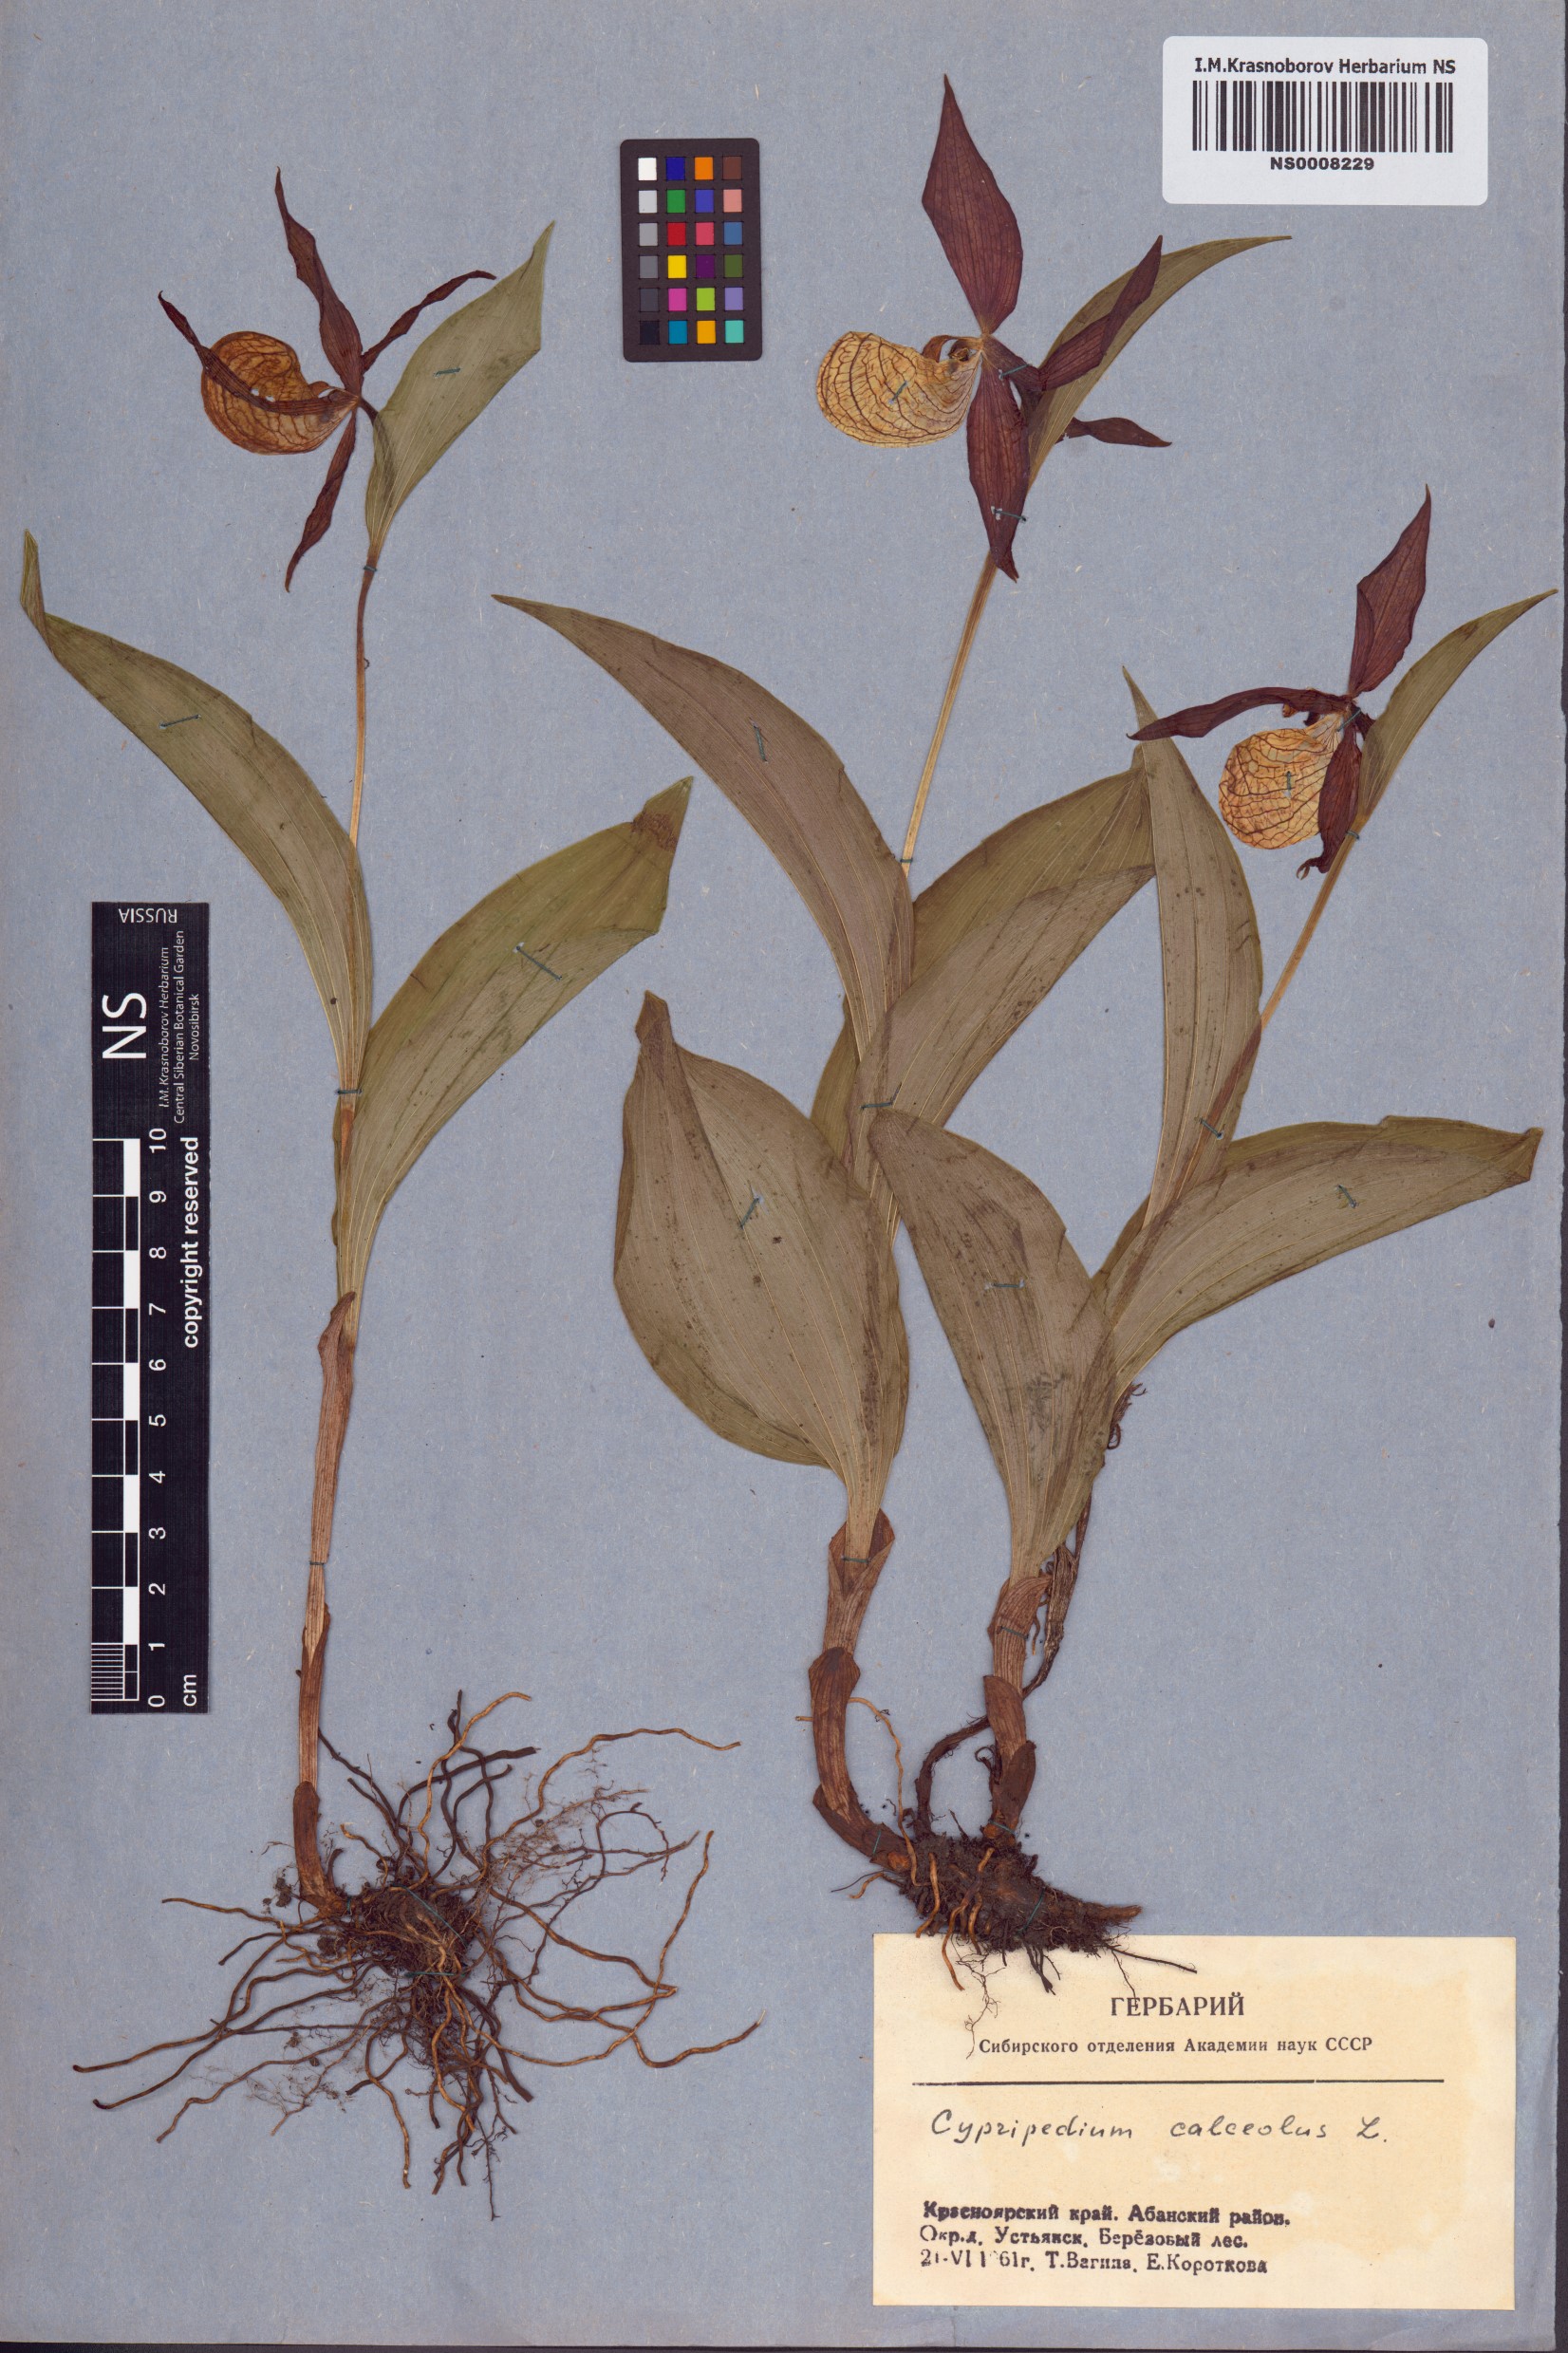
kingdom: Plantae
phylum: Tracheophyta
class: Liliopsida
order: Asparagales
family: Orchidaceae
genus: Cypripedium
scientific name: Cypripedium calceolus
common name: Lady's-slipper
